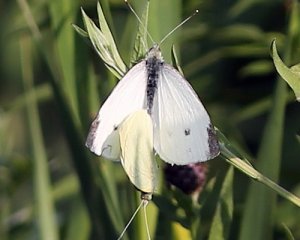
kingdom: Animalia
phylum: Arthropoda
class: Insecta
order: Lepidoptera
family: Pieridae
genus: Pieris
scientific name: Pieris rapae
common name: Cabbage White
